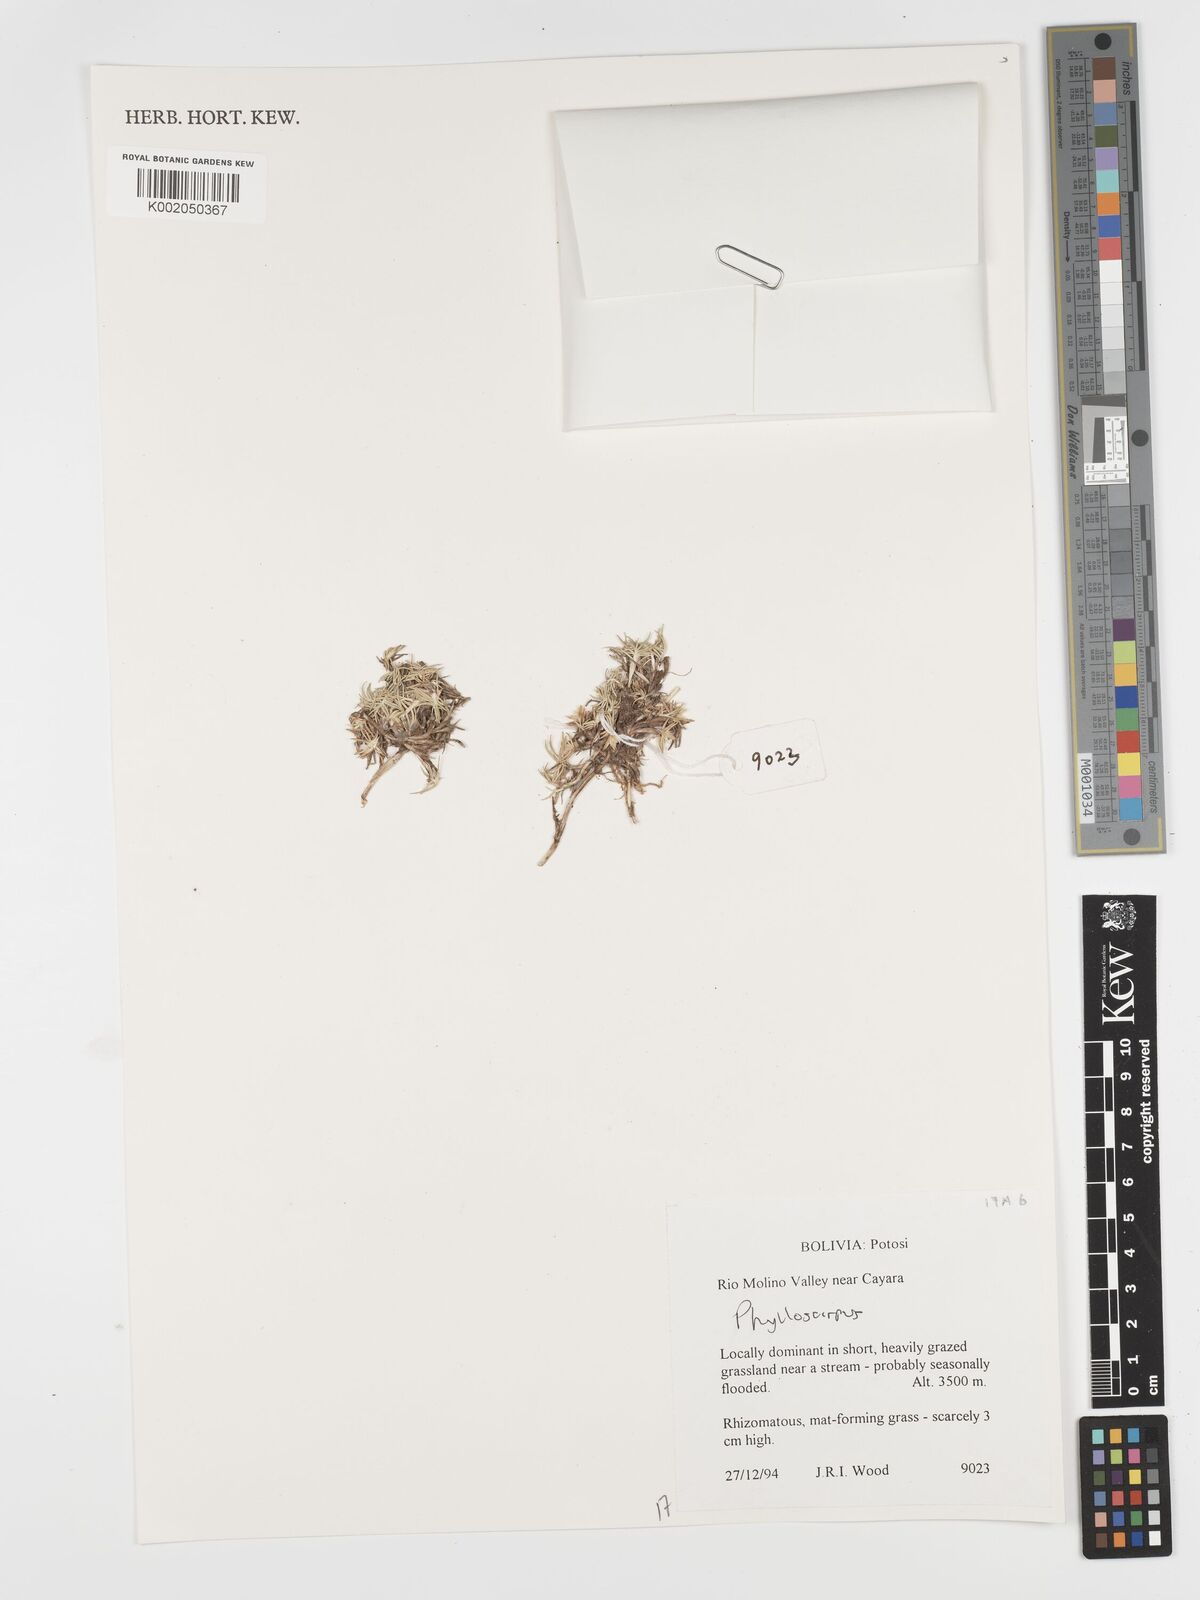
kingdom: Plantae
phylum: Tracheophyta
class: Liliopsida
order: Poales
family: Cyperaceae
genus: Phylloscirpus
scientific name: Phylloscirpus
